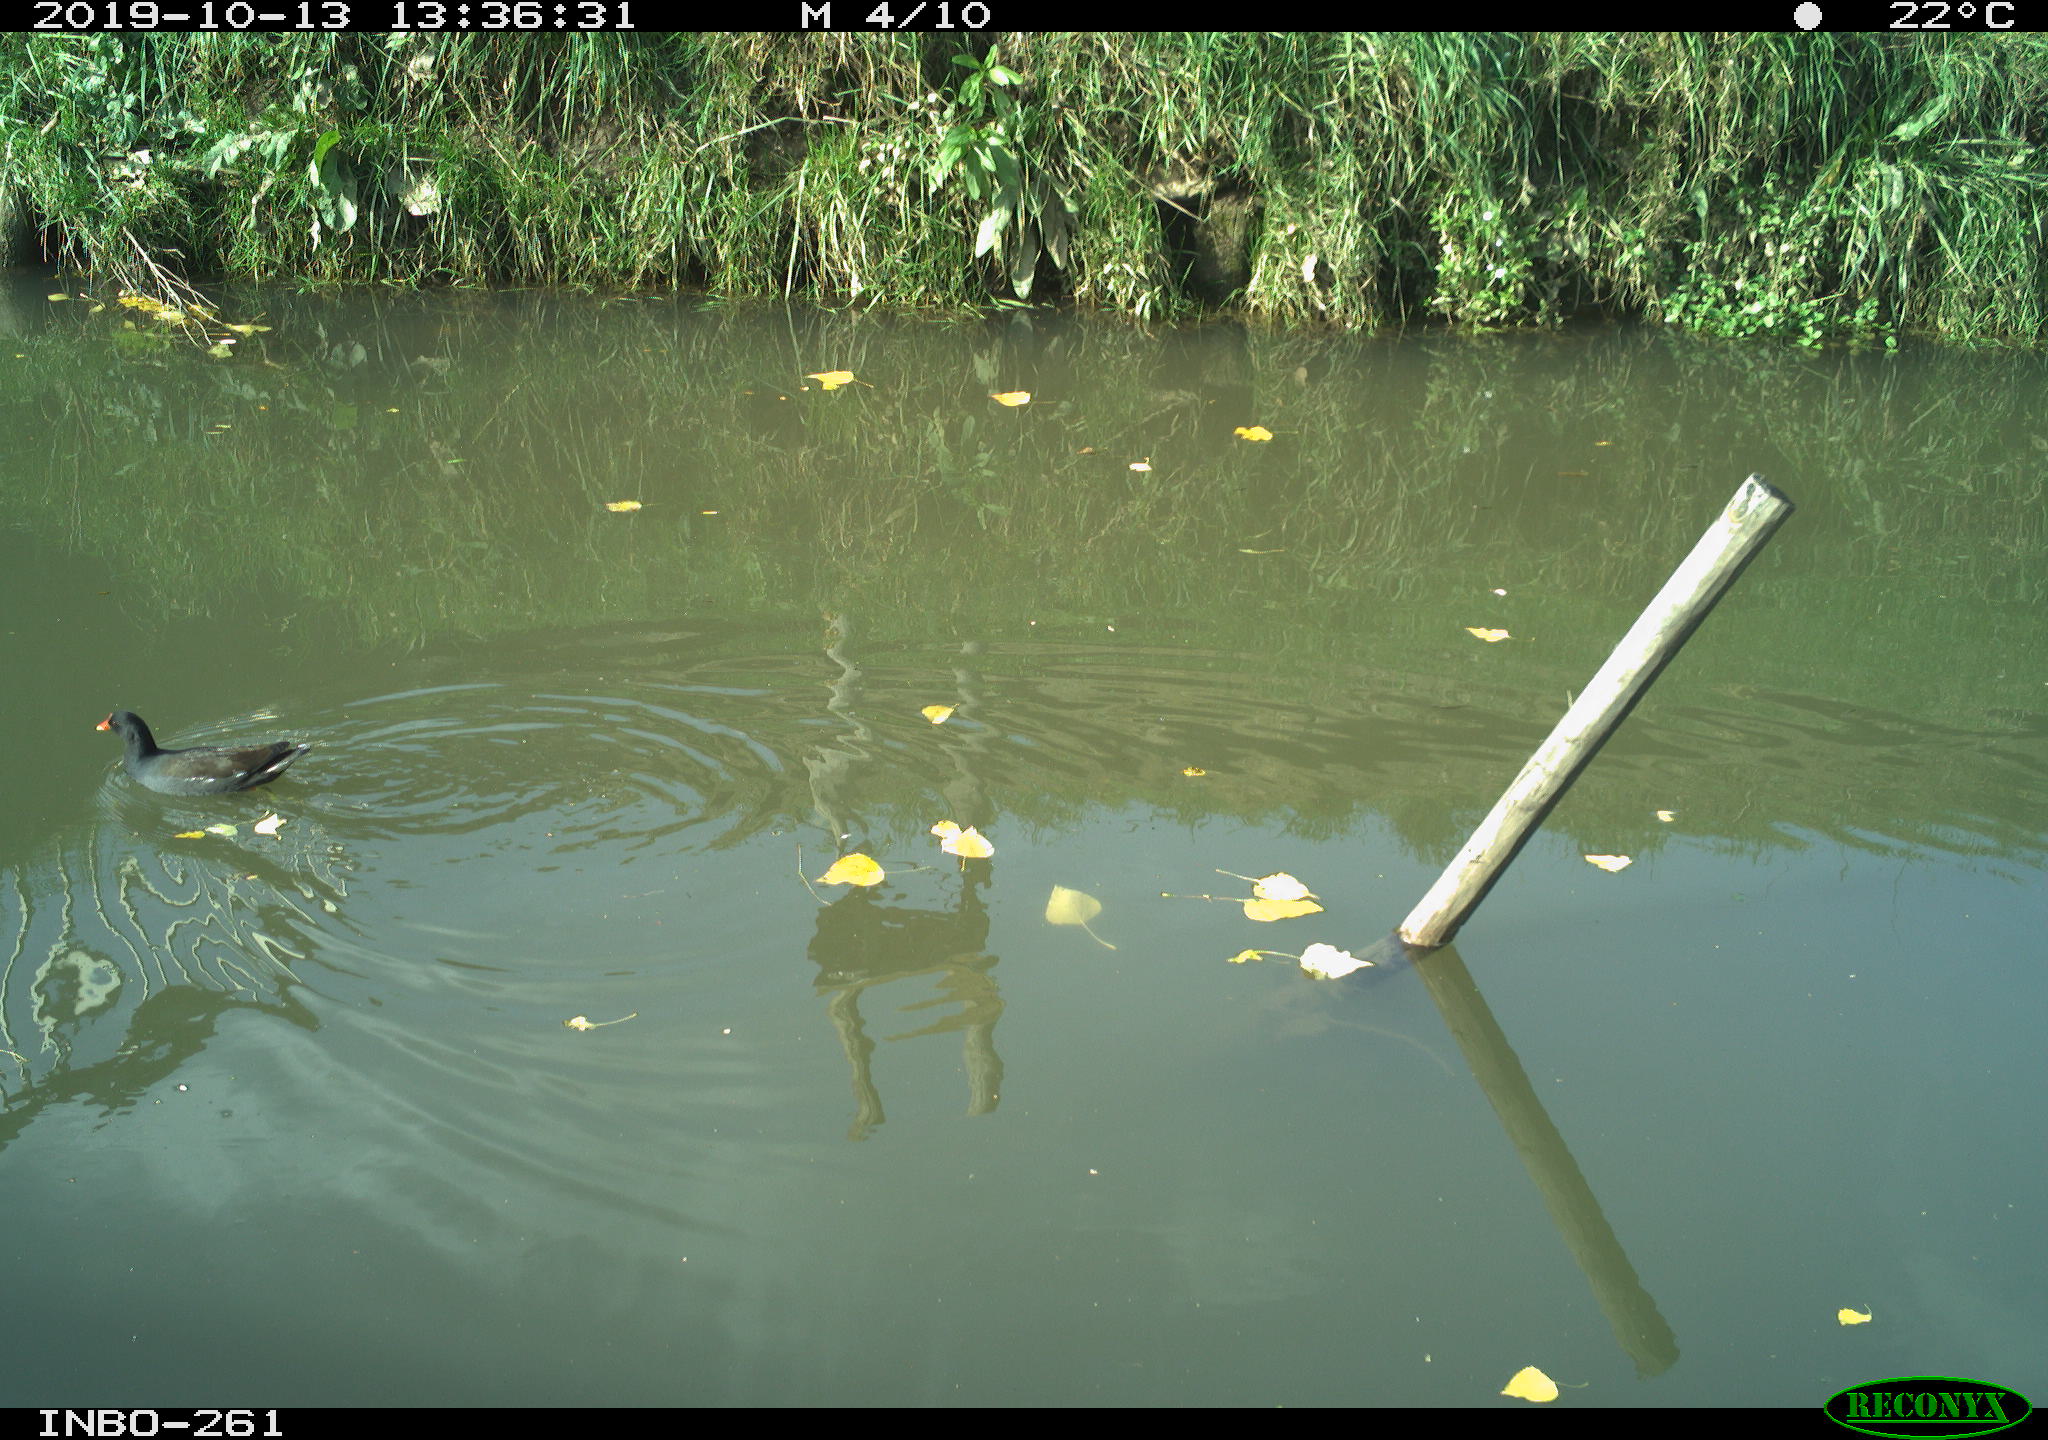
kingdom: Animalia
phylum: Chordata
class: Aves
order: Gruiformes
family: Rallidae
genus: Gallinula
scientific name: Gallinula chloropus
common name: Common moorhen
